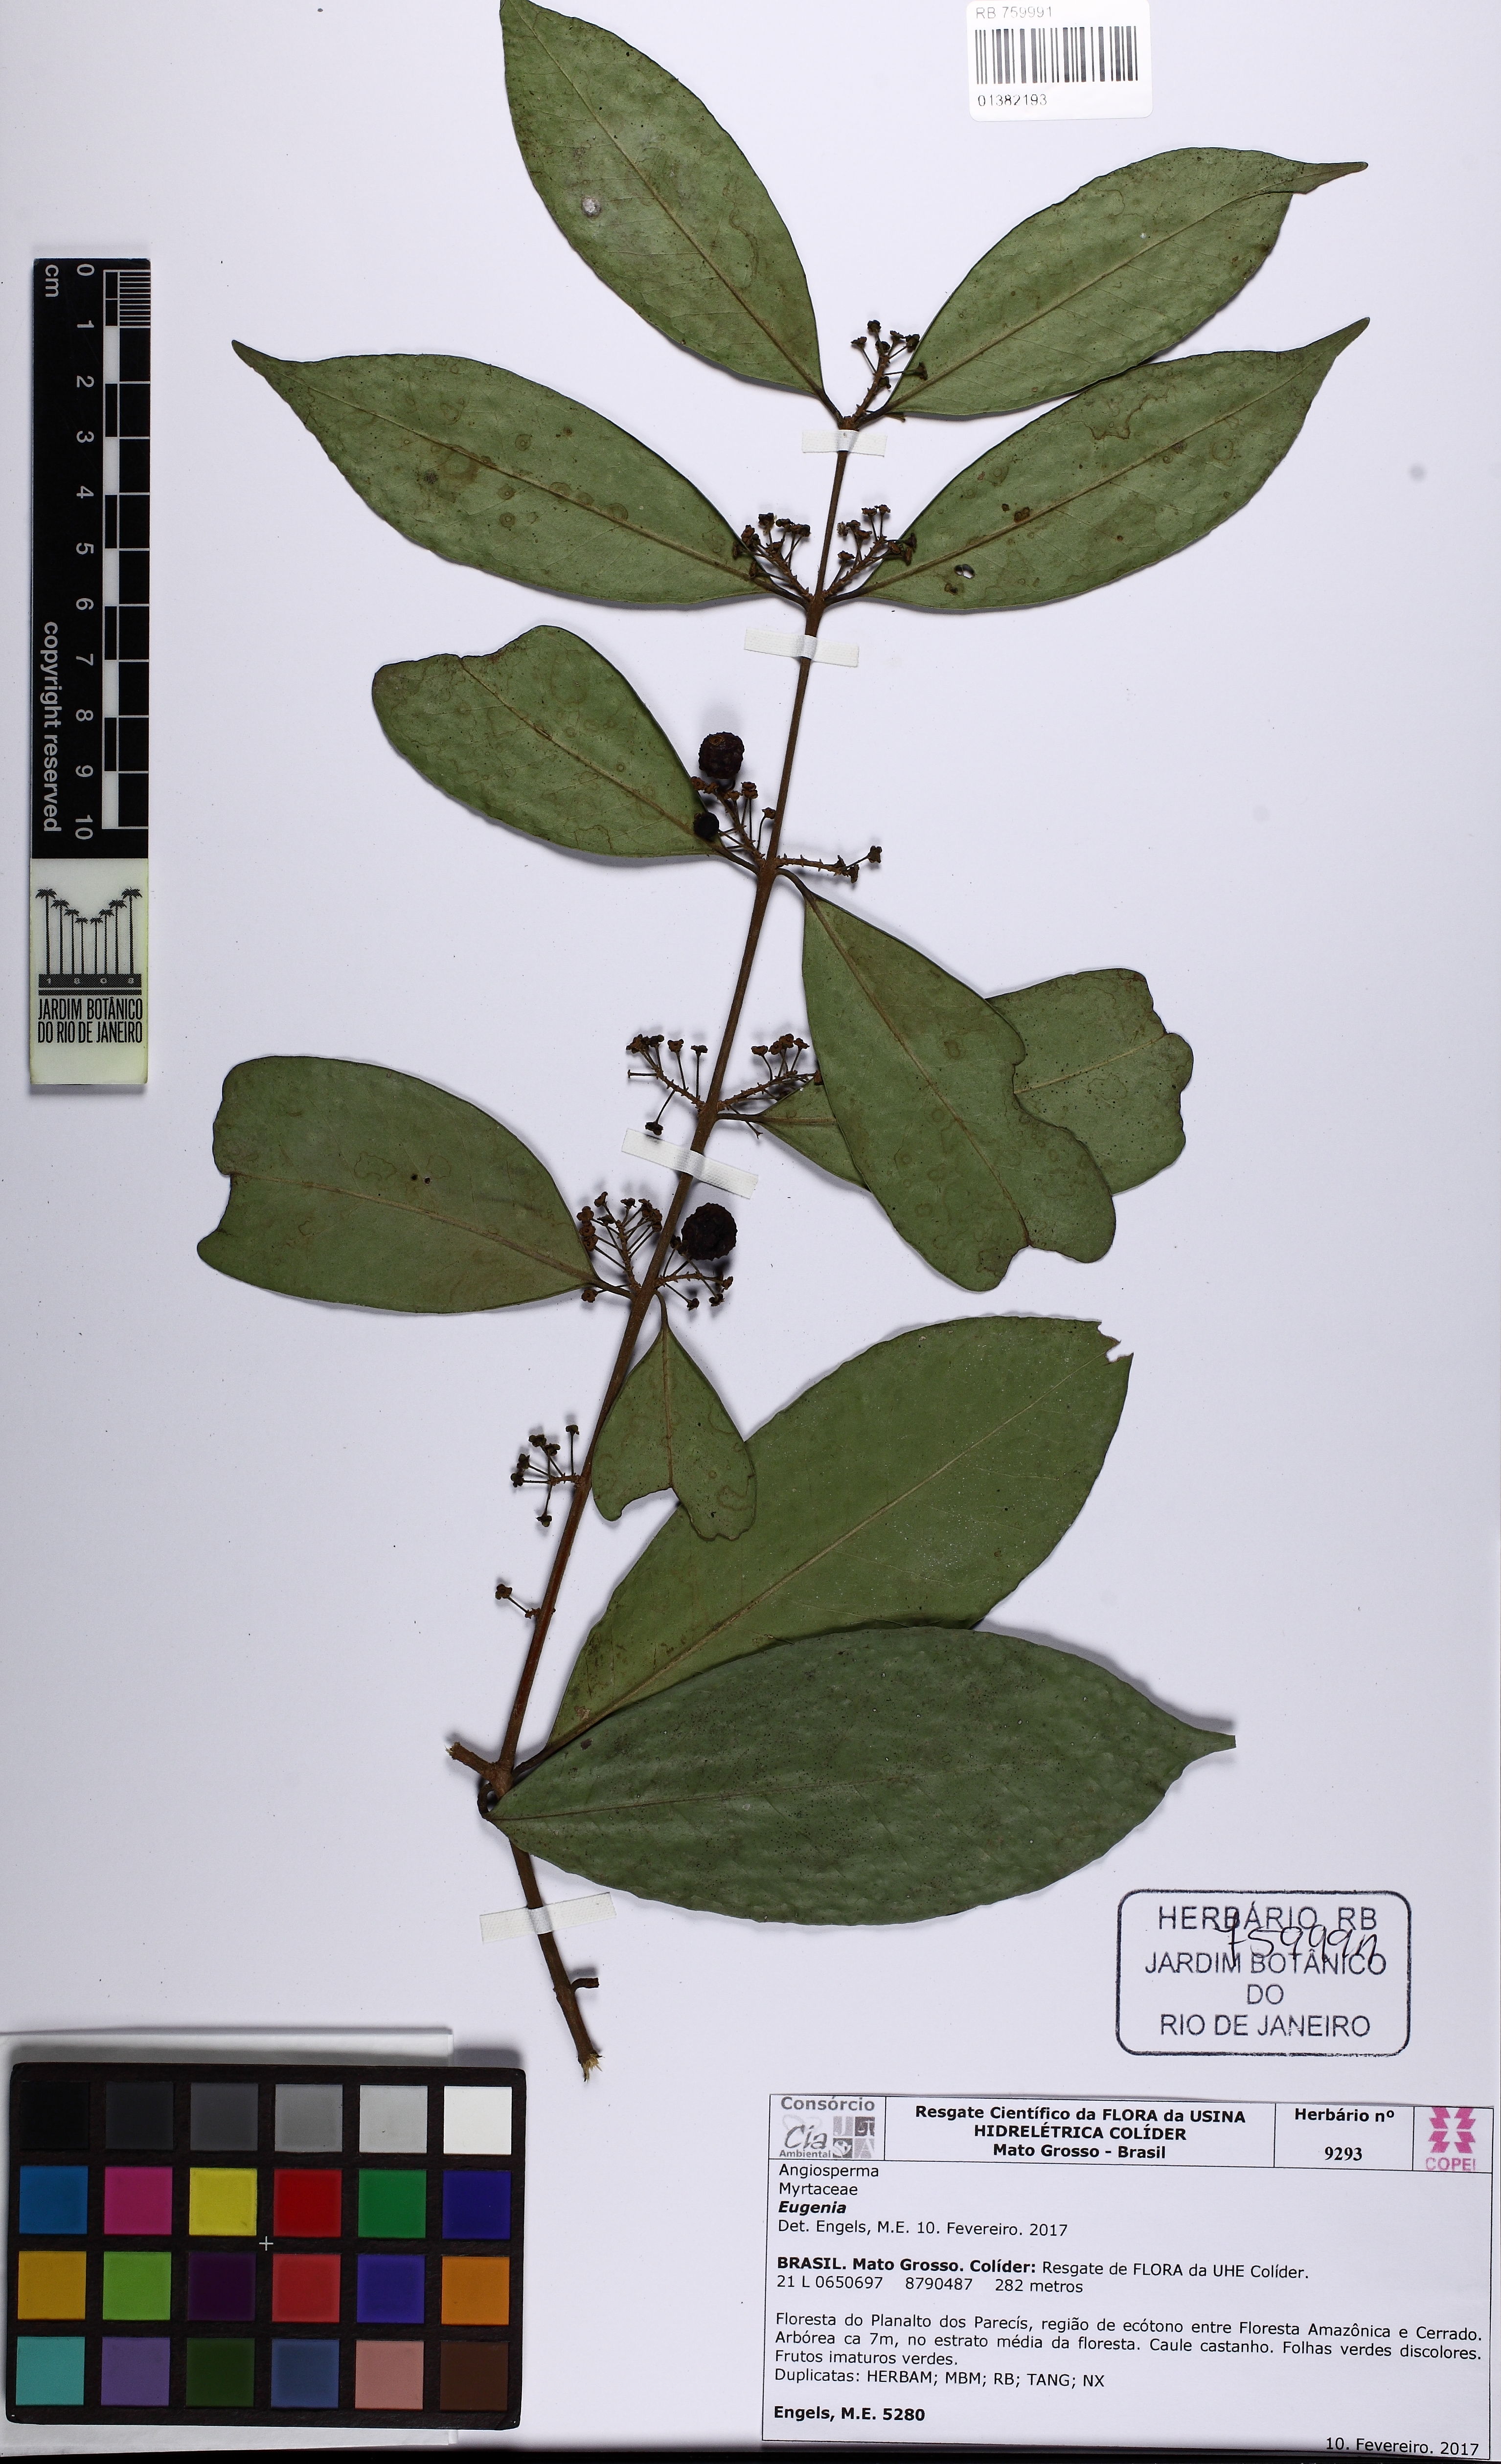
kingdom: Plantae
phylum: Tracheophyta
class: Magnoliopsida
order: Myrtales
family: Myrtaceae
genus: Eugenia
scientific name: Eugenia densiracemosa
